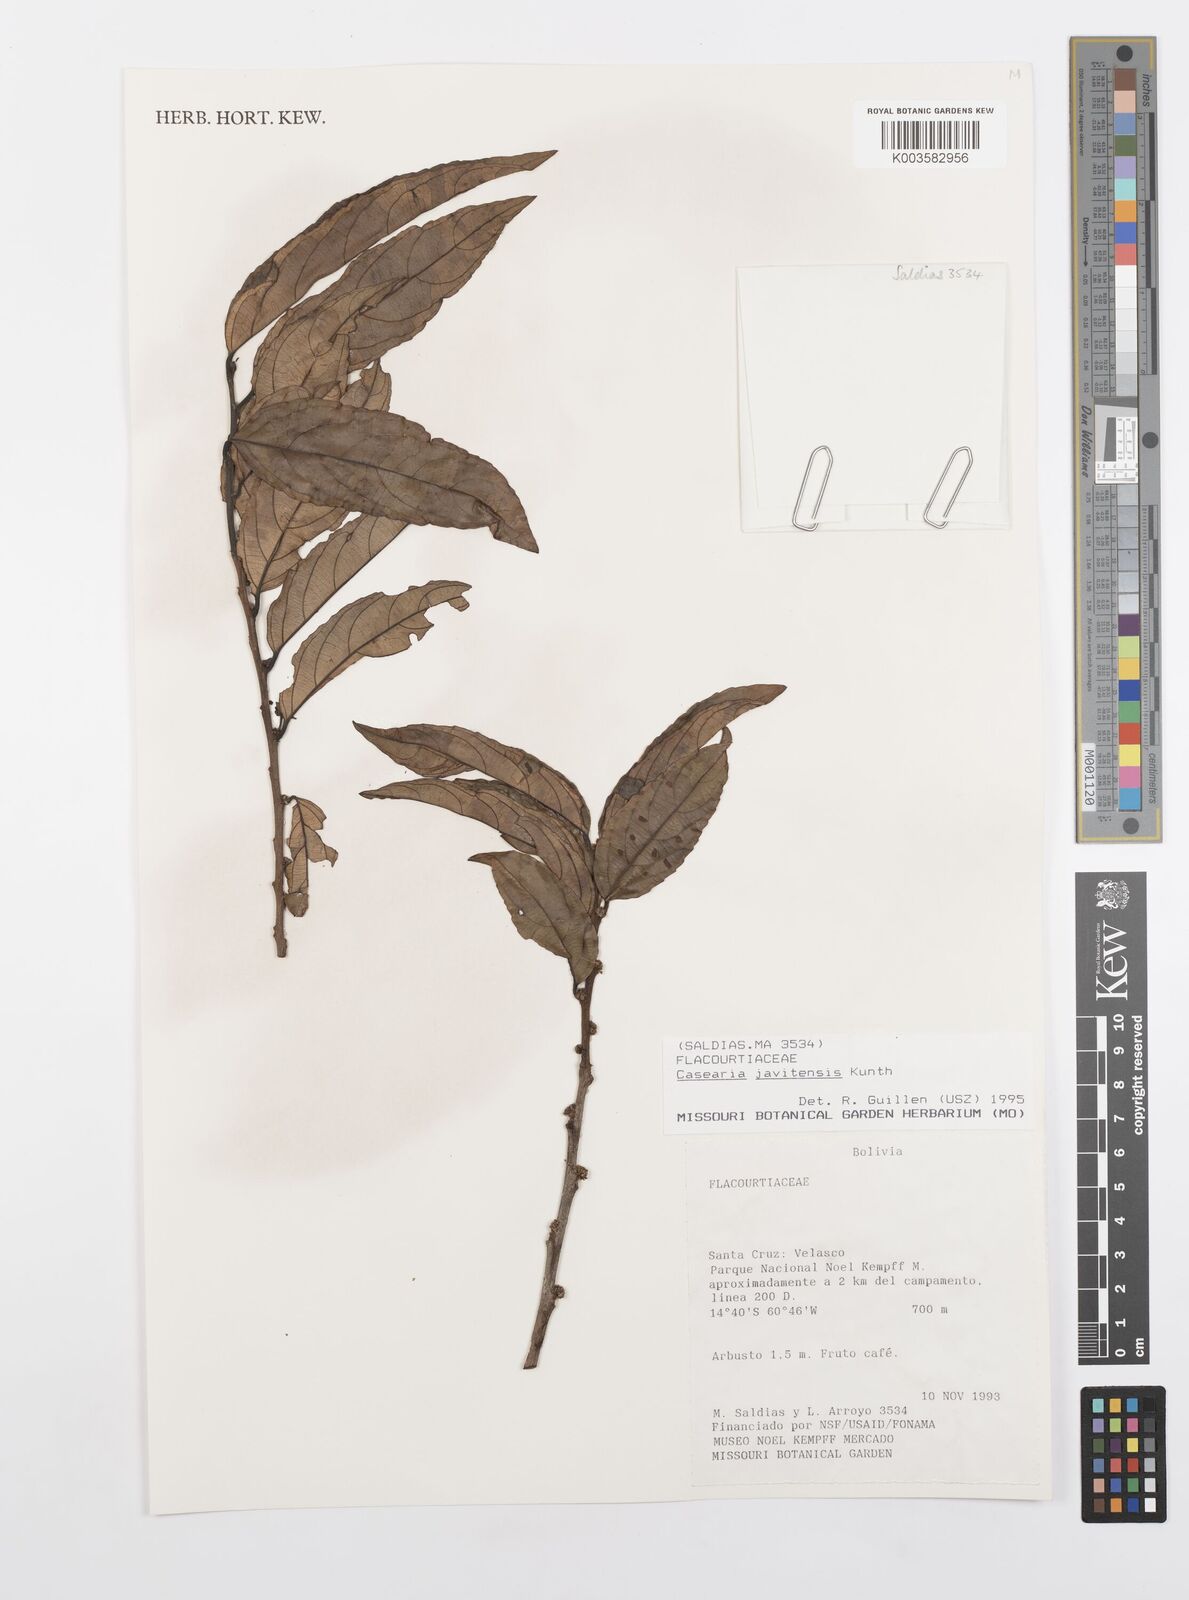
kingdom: Plantae
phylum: Tracheophyta
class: Magnoliopsida
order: Malpighiales
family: Salicaceae
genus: Piparea
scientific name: Piparea multiflora
